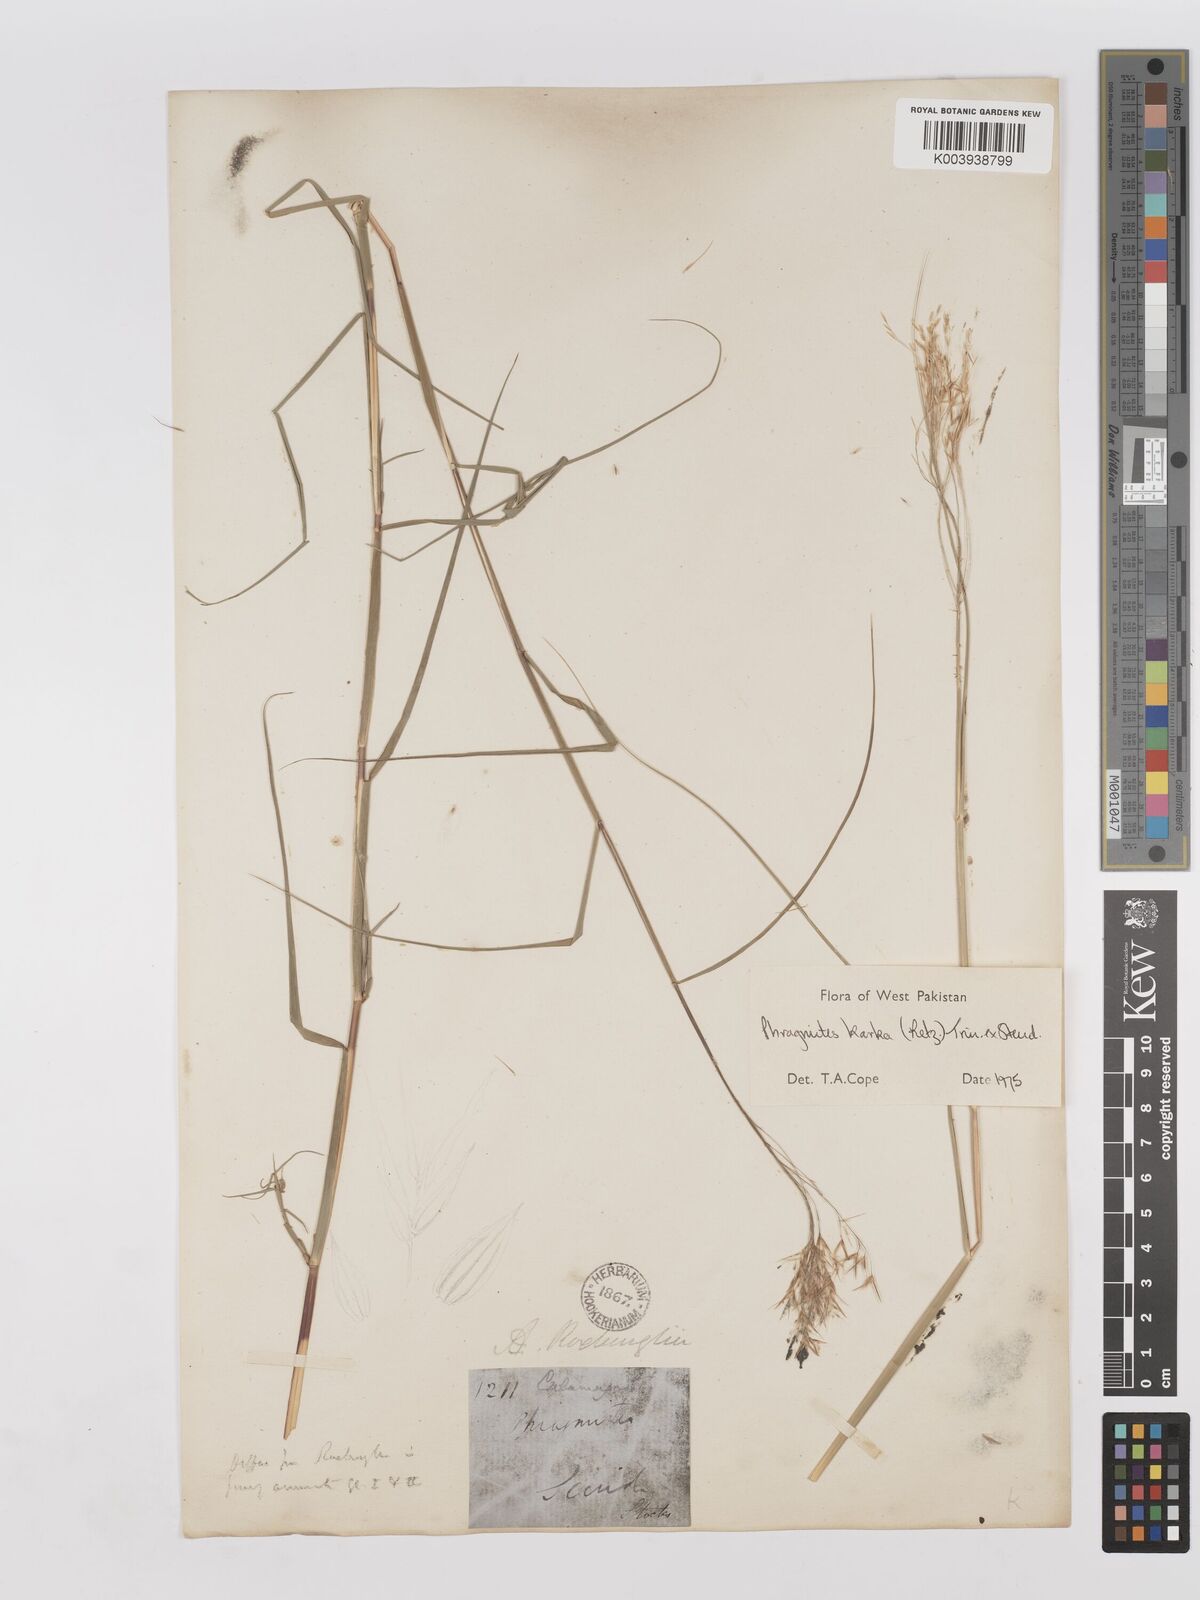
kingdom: Plantae
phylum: Tracheophyta
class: Liliopsida
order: Poales
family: Poaceae
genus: Phragmites
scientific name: Phragmites karka
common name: Tropical reed
